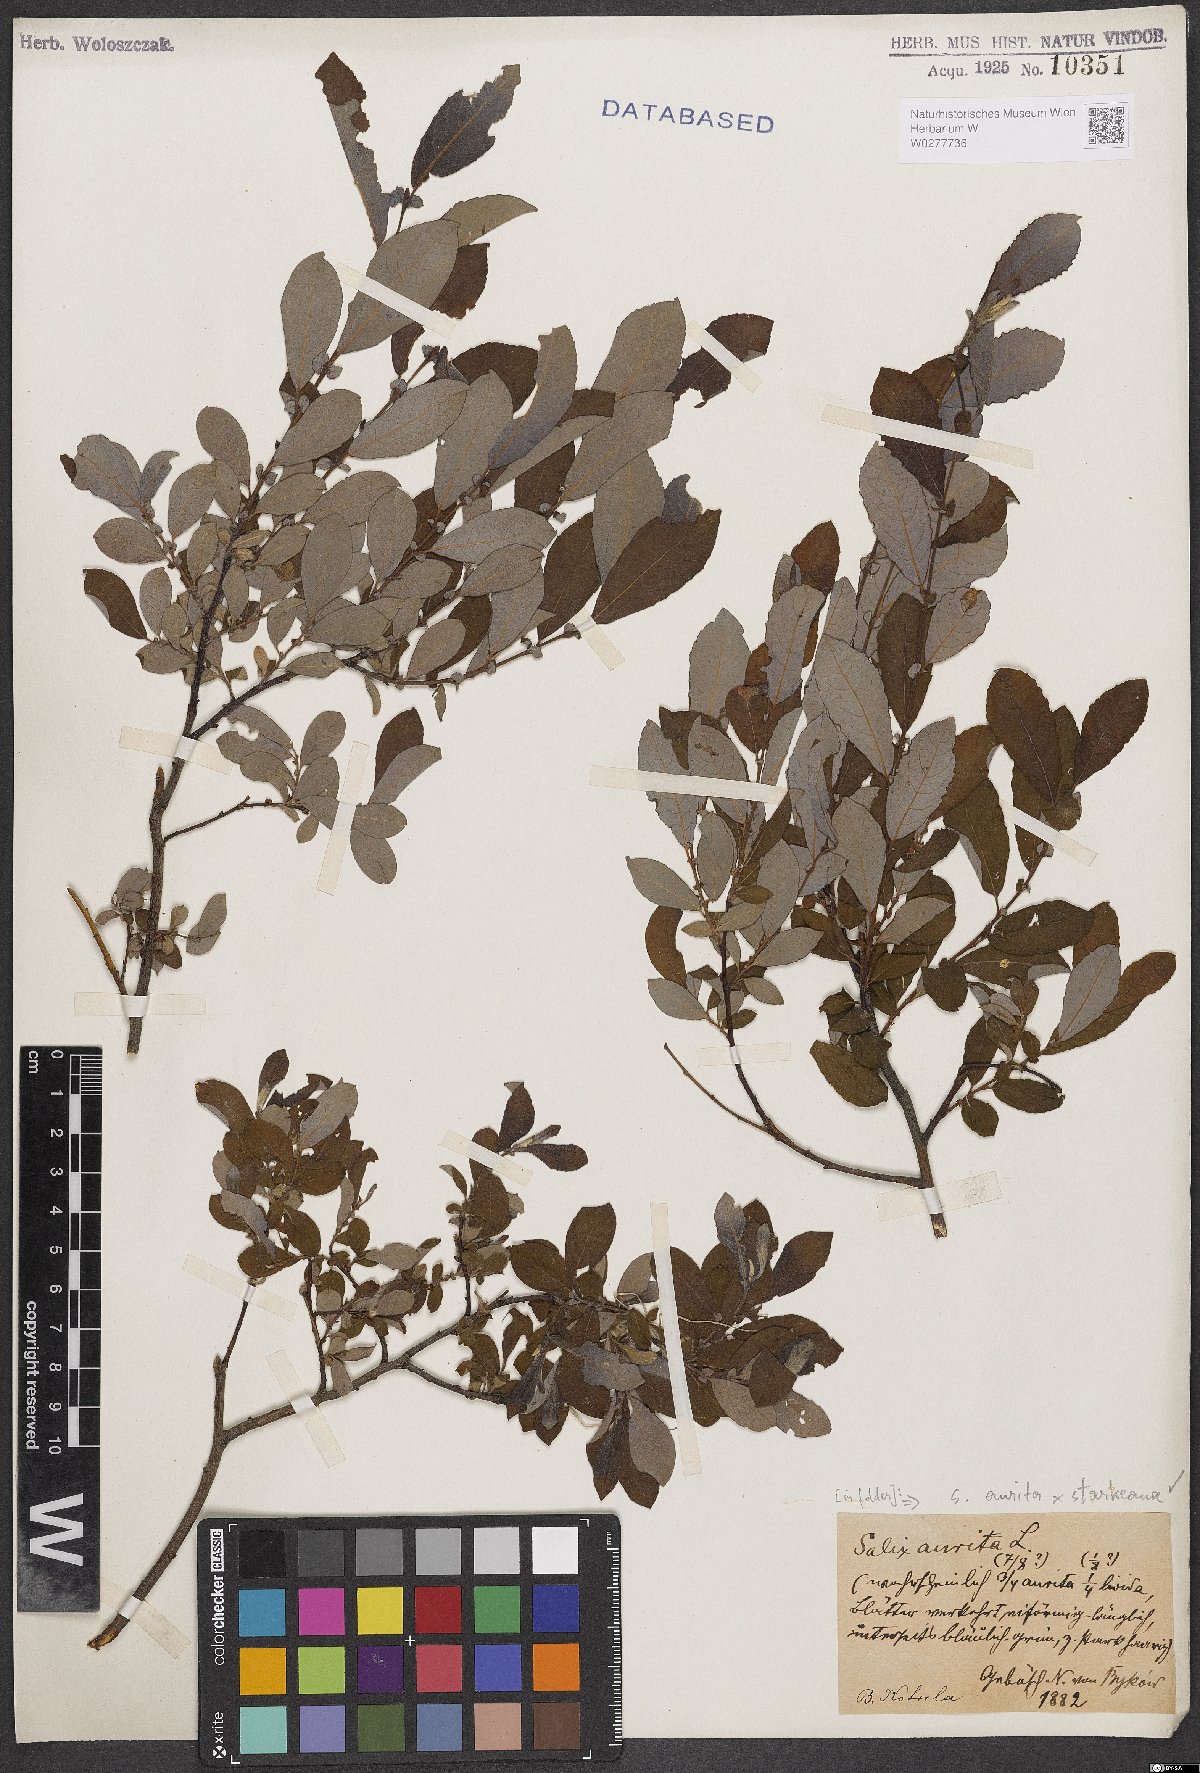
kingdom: Plantae
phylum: Tracheophyta
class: Magnoliopsida
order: Malpighiales
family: Salicaceae
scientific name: Salicaceae
